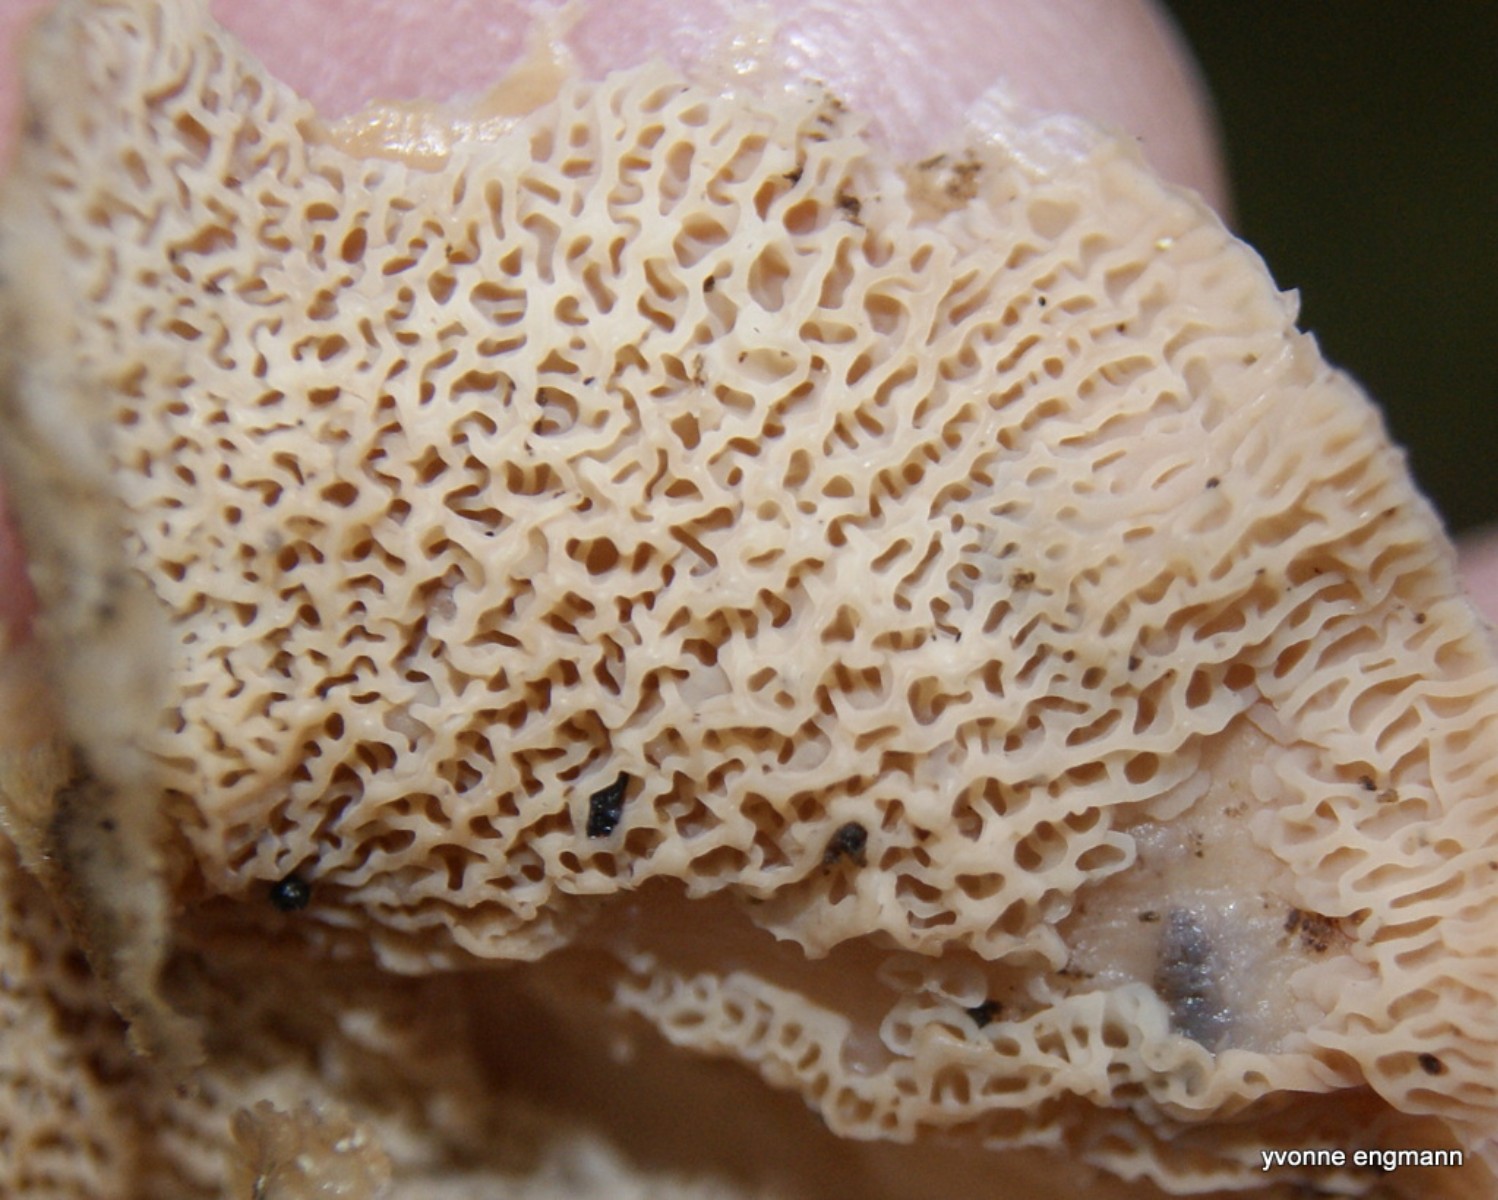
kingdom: Fungi
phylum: Basidiomycota
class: Agaricomycetes
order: Polyporales
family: Meruliaceae
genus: Phlebia
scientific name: Phlebia tremellosa
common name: bævrende åresvamp
